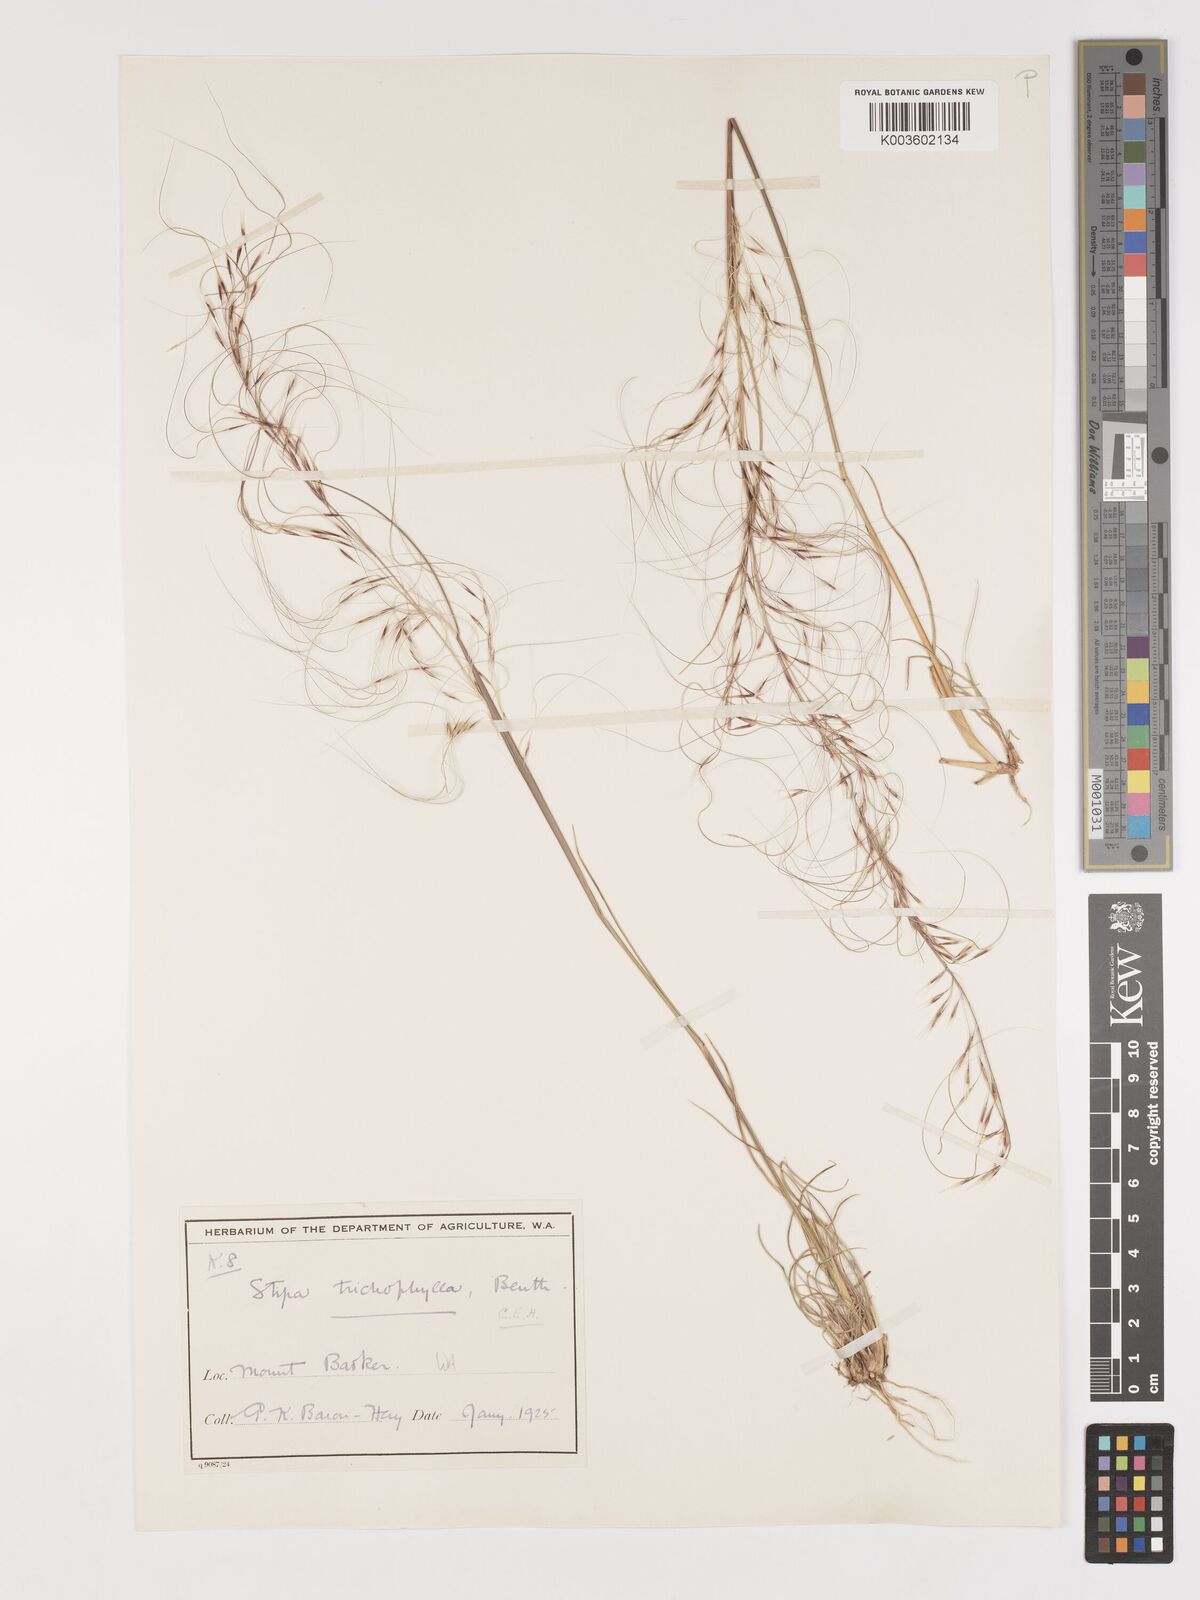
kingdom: Plantae
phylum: Tracheophyta
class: Liliopsida
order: Poales
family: Poaceae
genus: Austrostipa
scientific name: Austrostipa trichophylla
